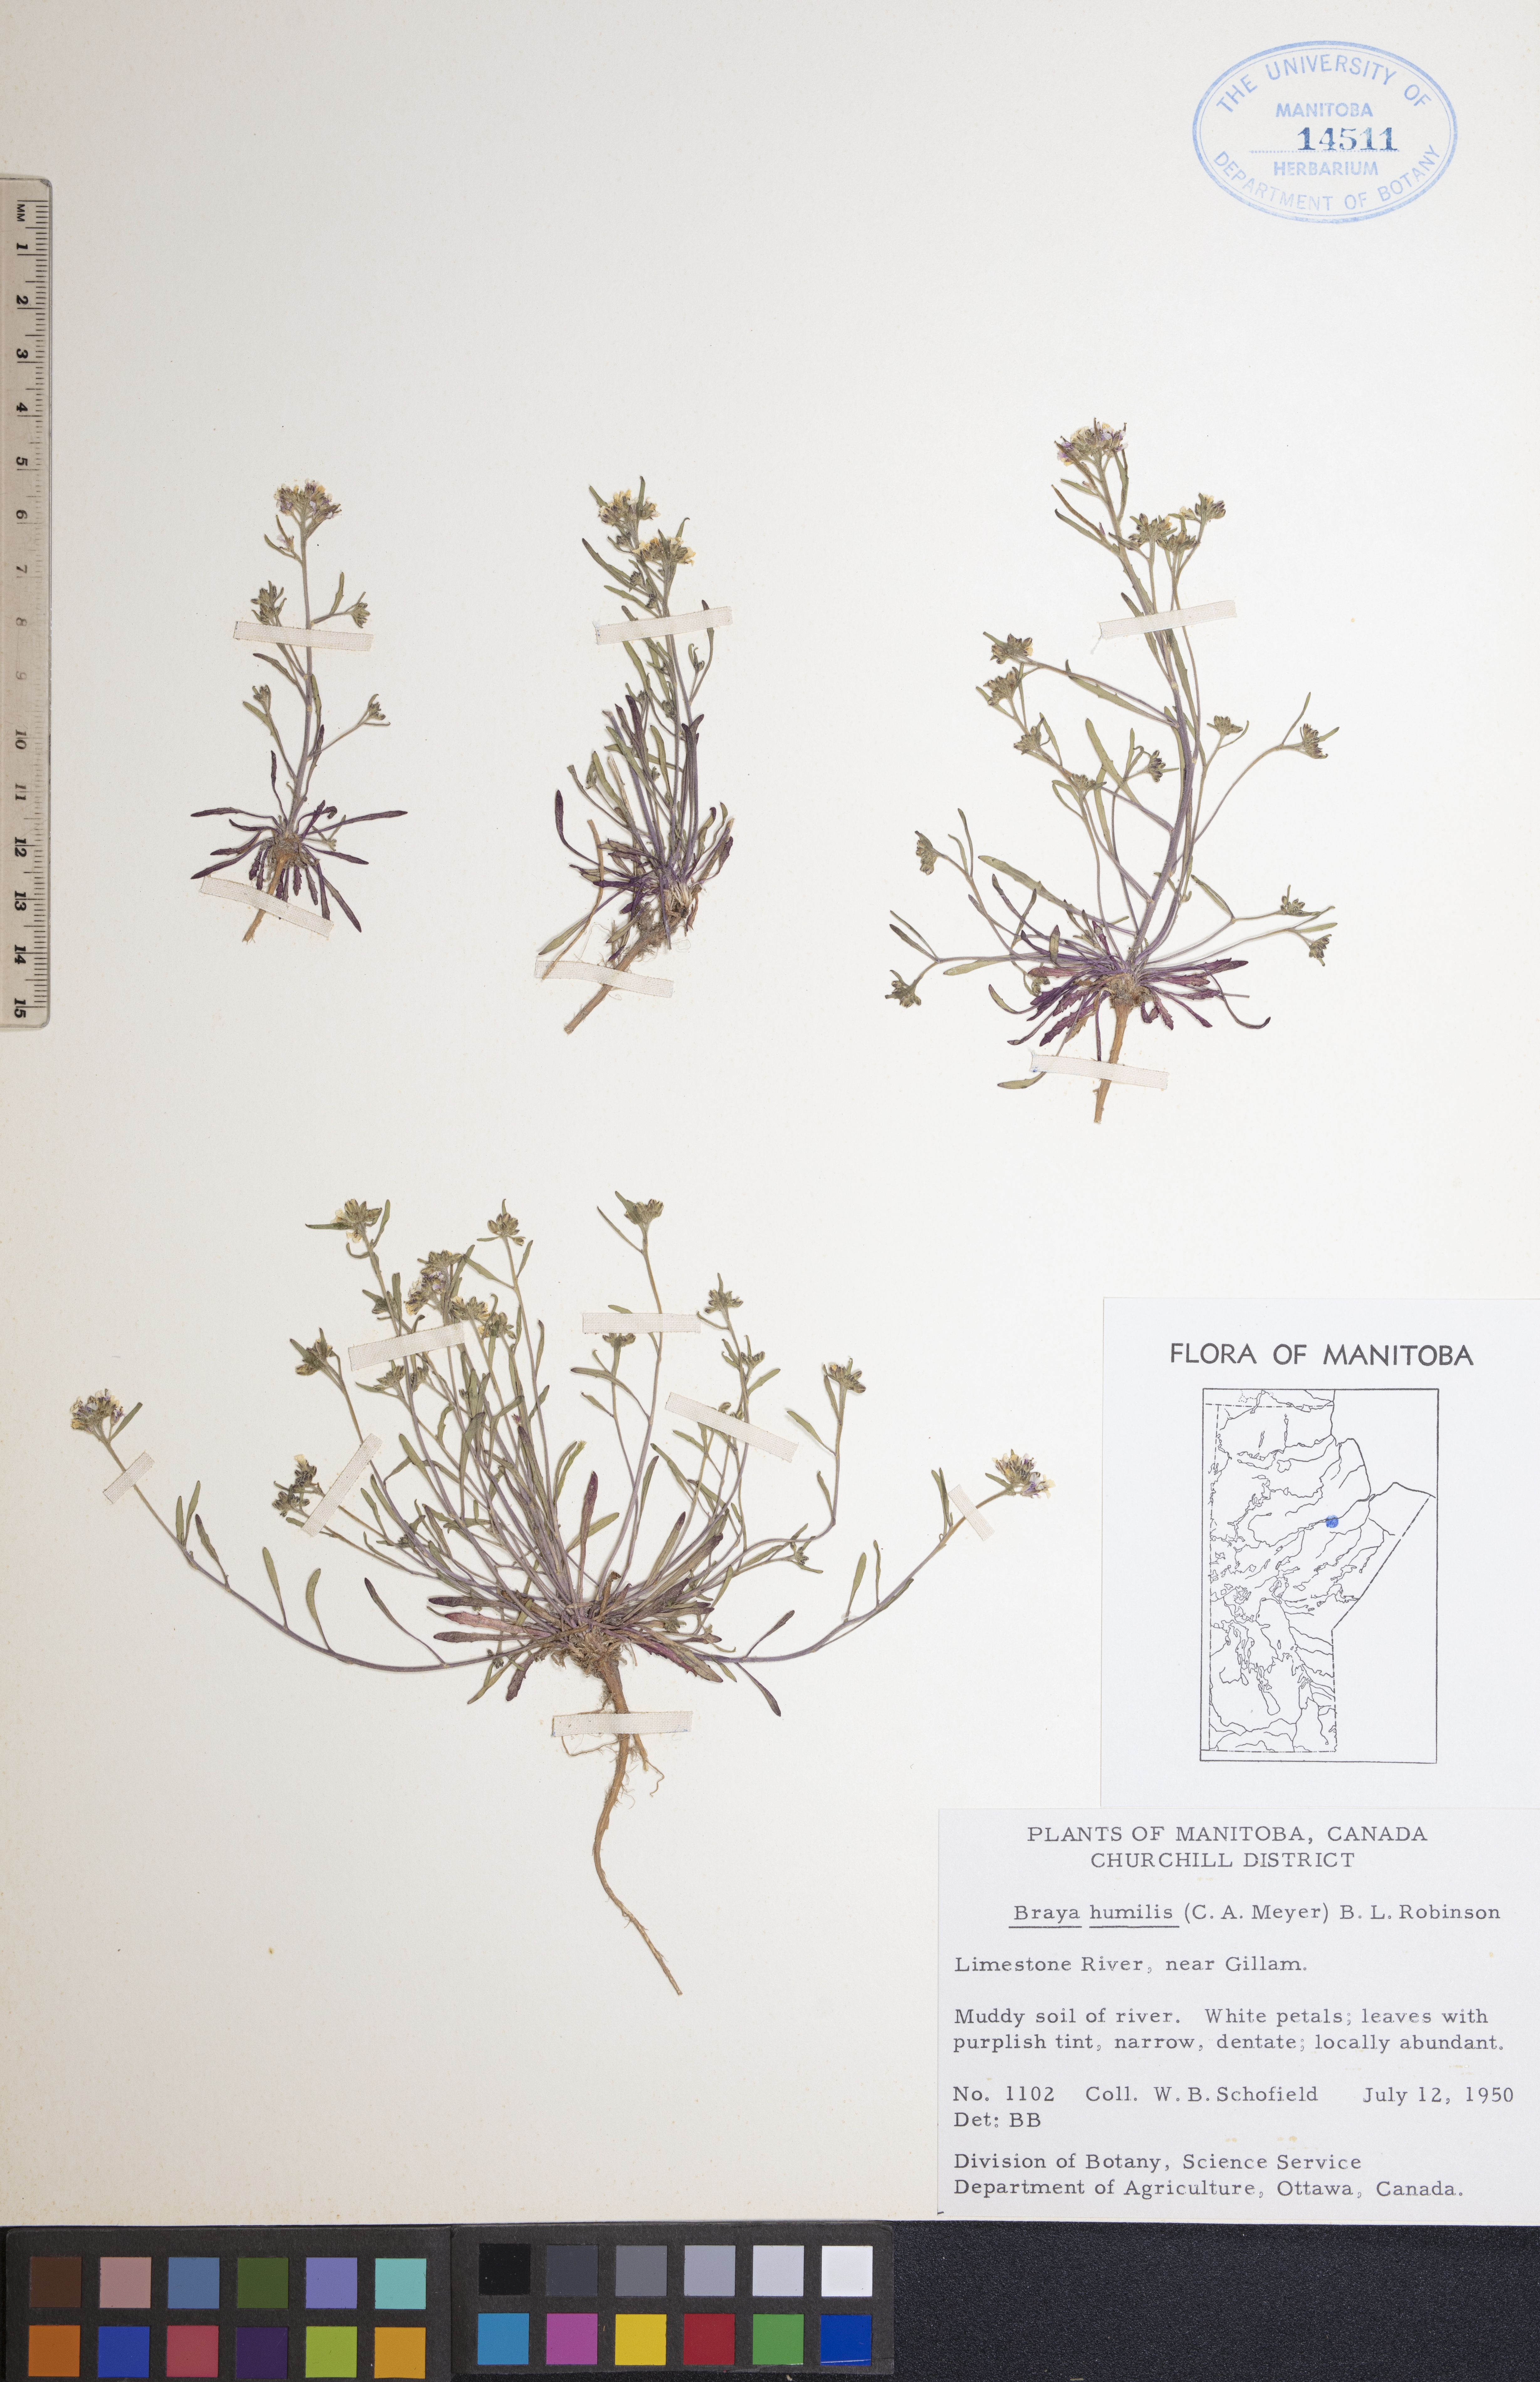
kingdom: Plantae
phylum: Tracheophyta
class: Magnoliopsida
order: Brassicales
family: Brassicaceae
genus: Braya
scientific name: Braya humilis
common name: Alpine northern rockcress
